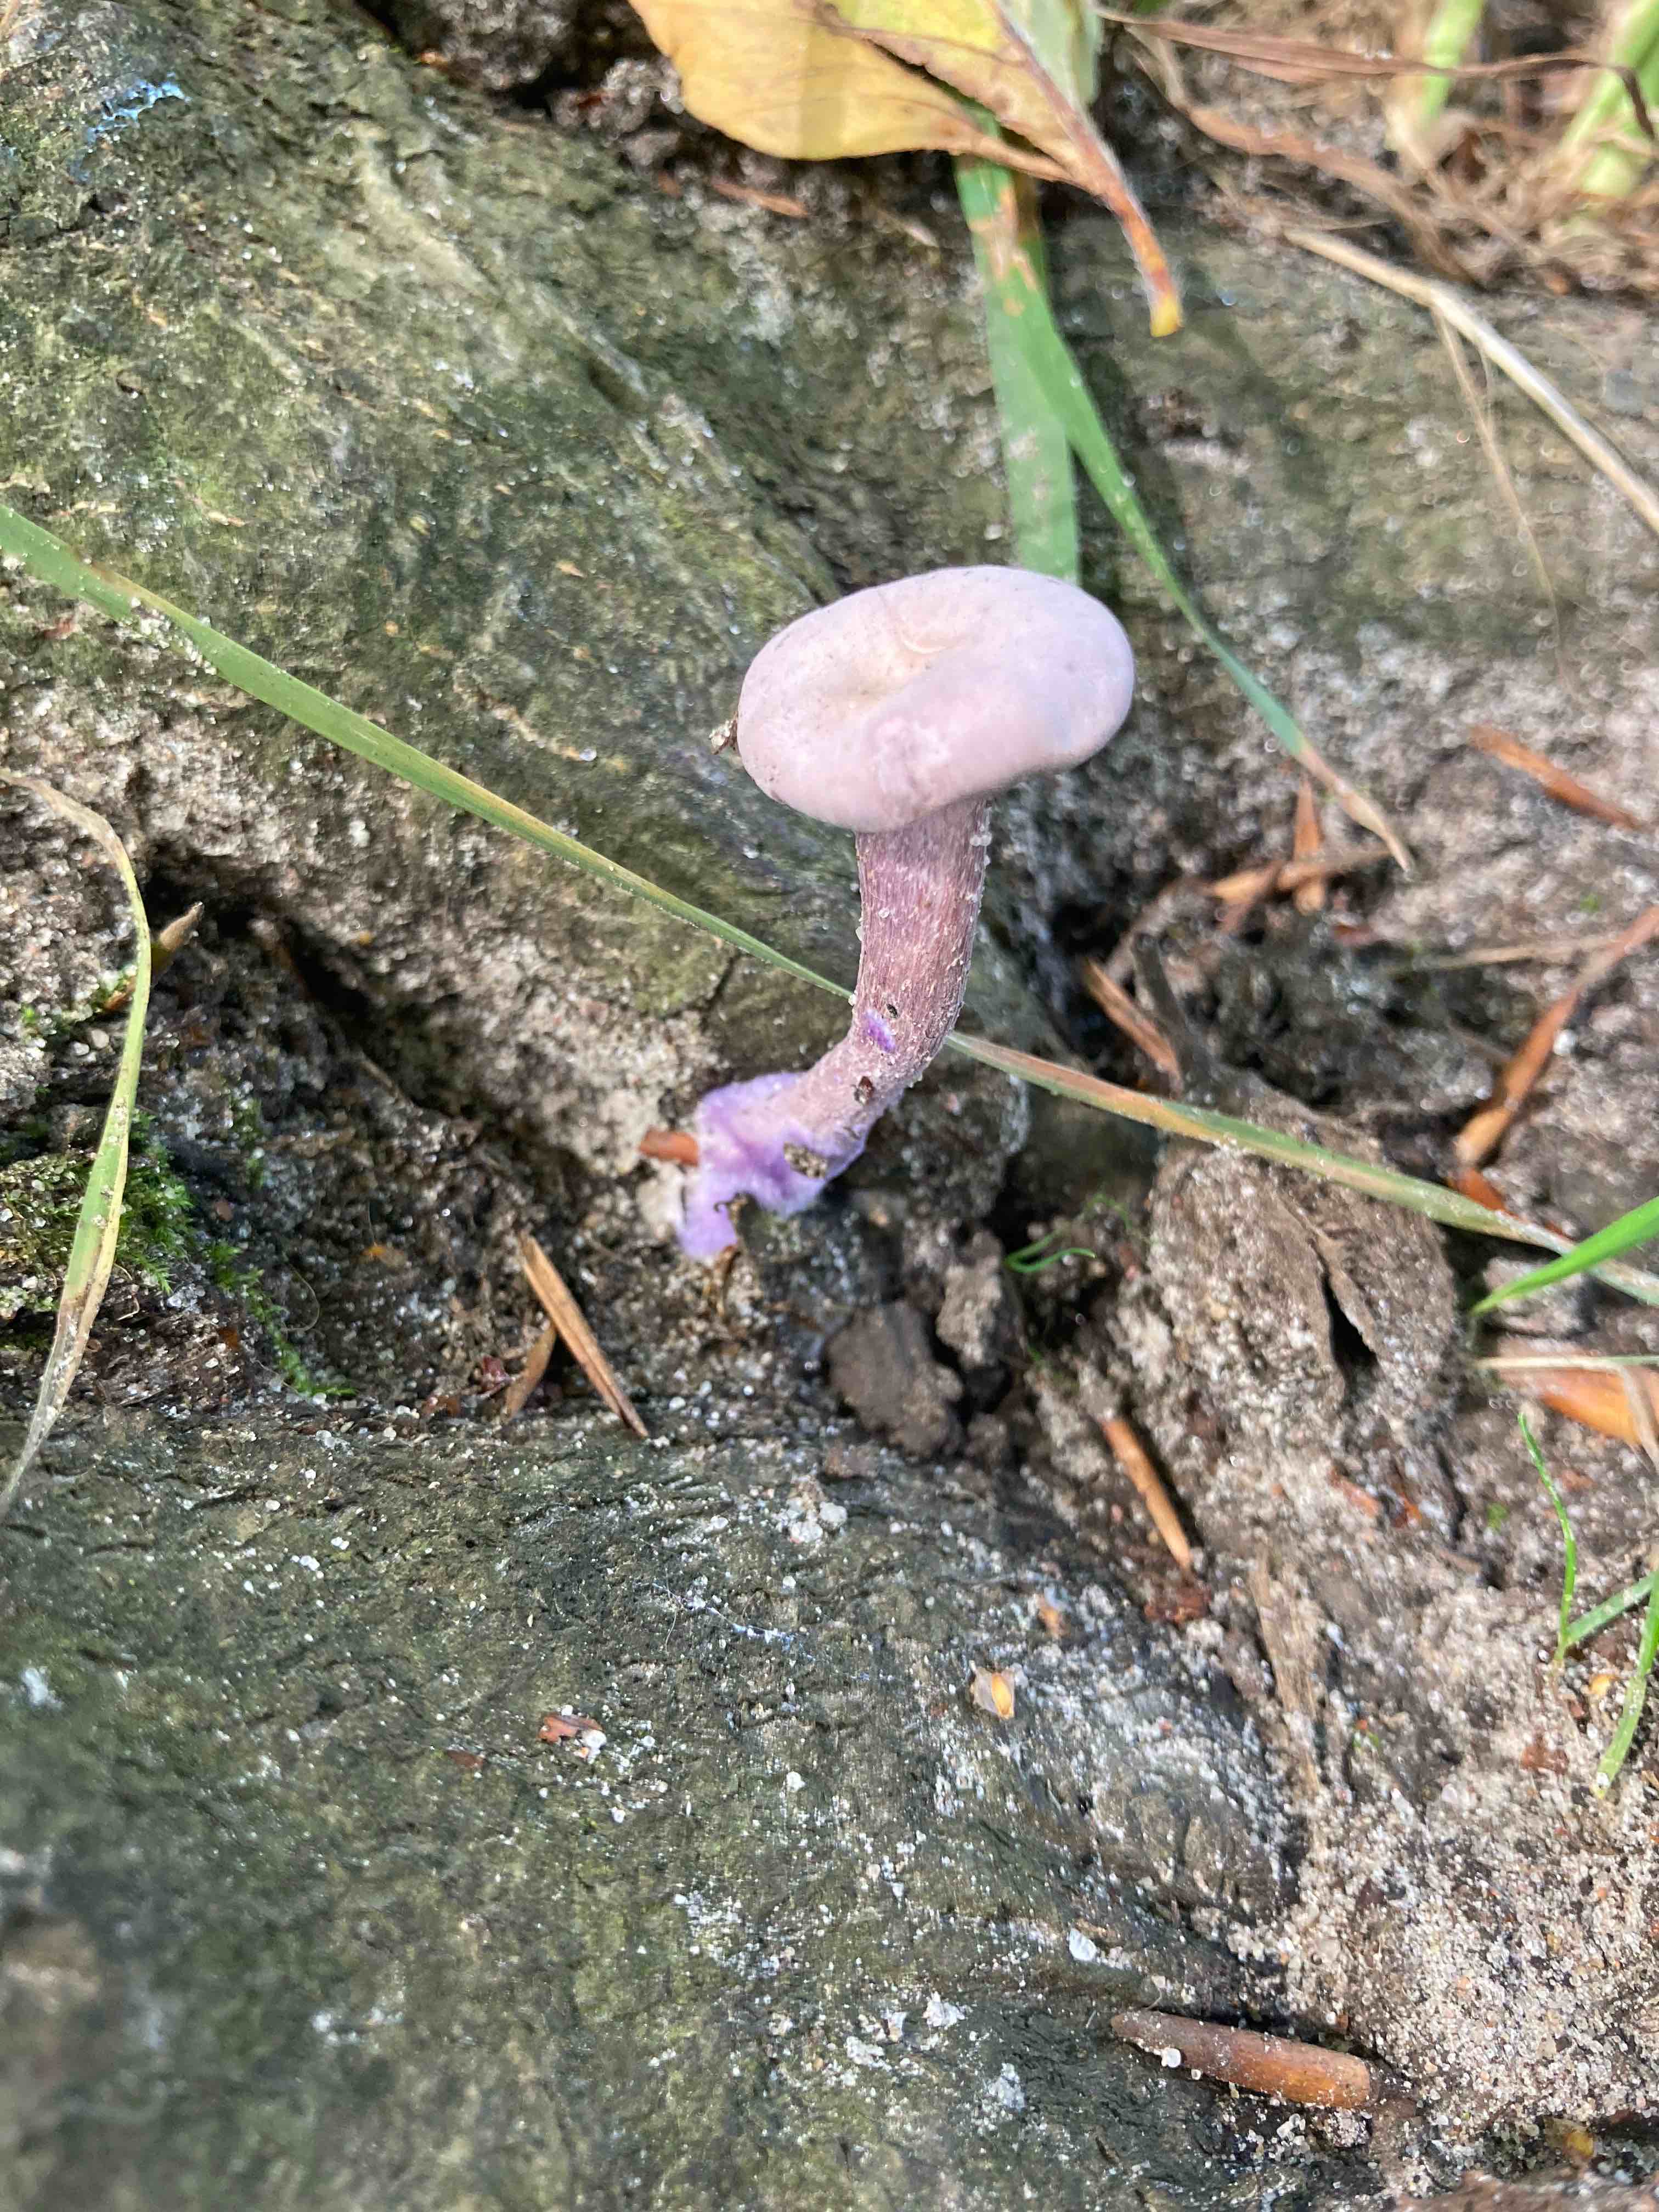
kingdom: Fungi
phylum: Basidiomycota
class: Agaricomycetes
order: Agaricales
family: Hydnangiaceae
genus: Laccaria
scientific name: Laccaria amethystina
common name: violet ametysthat
